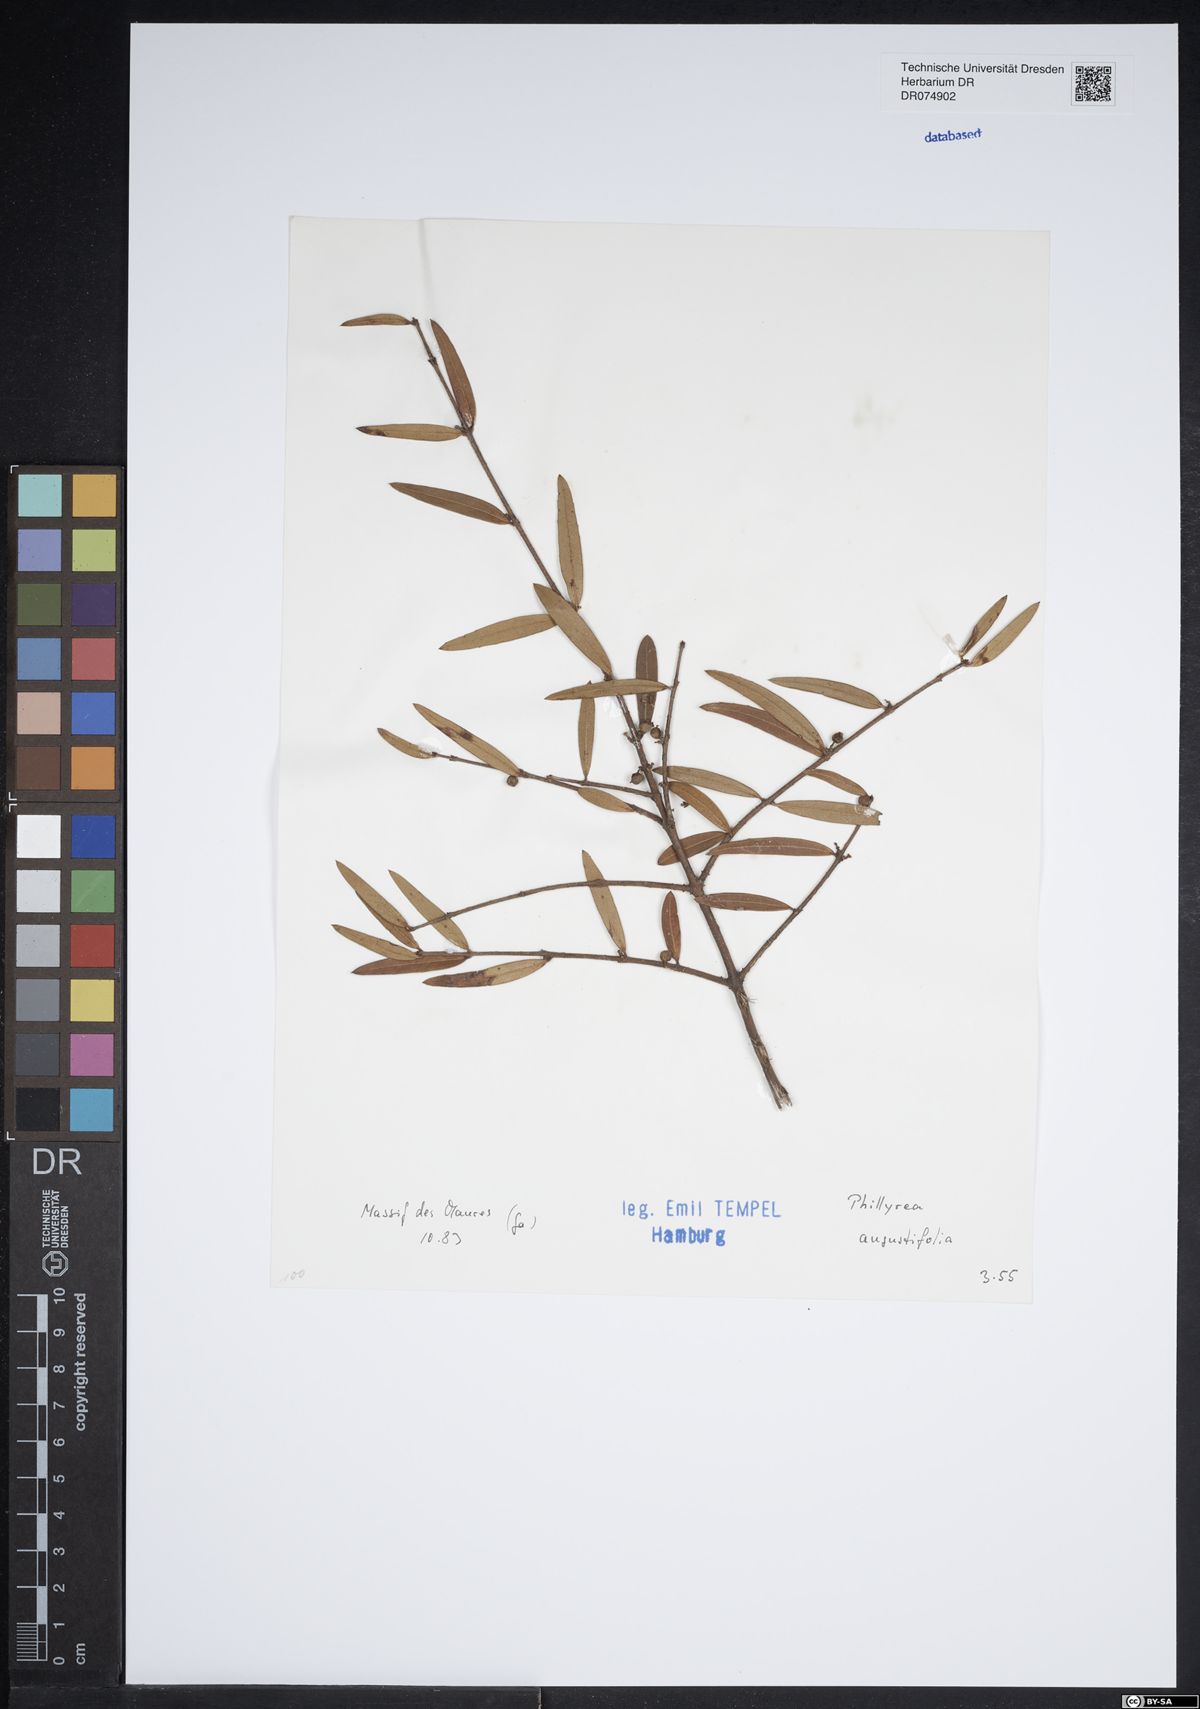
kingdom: Plantae
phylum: Tracheophyta
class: Magnoliopsida
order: Lamiales
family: Oleaceae
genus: Phillyrea
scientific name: Phillyrea angustifolia
